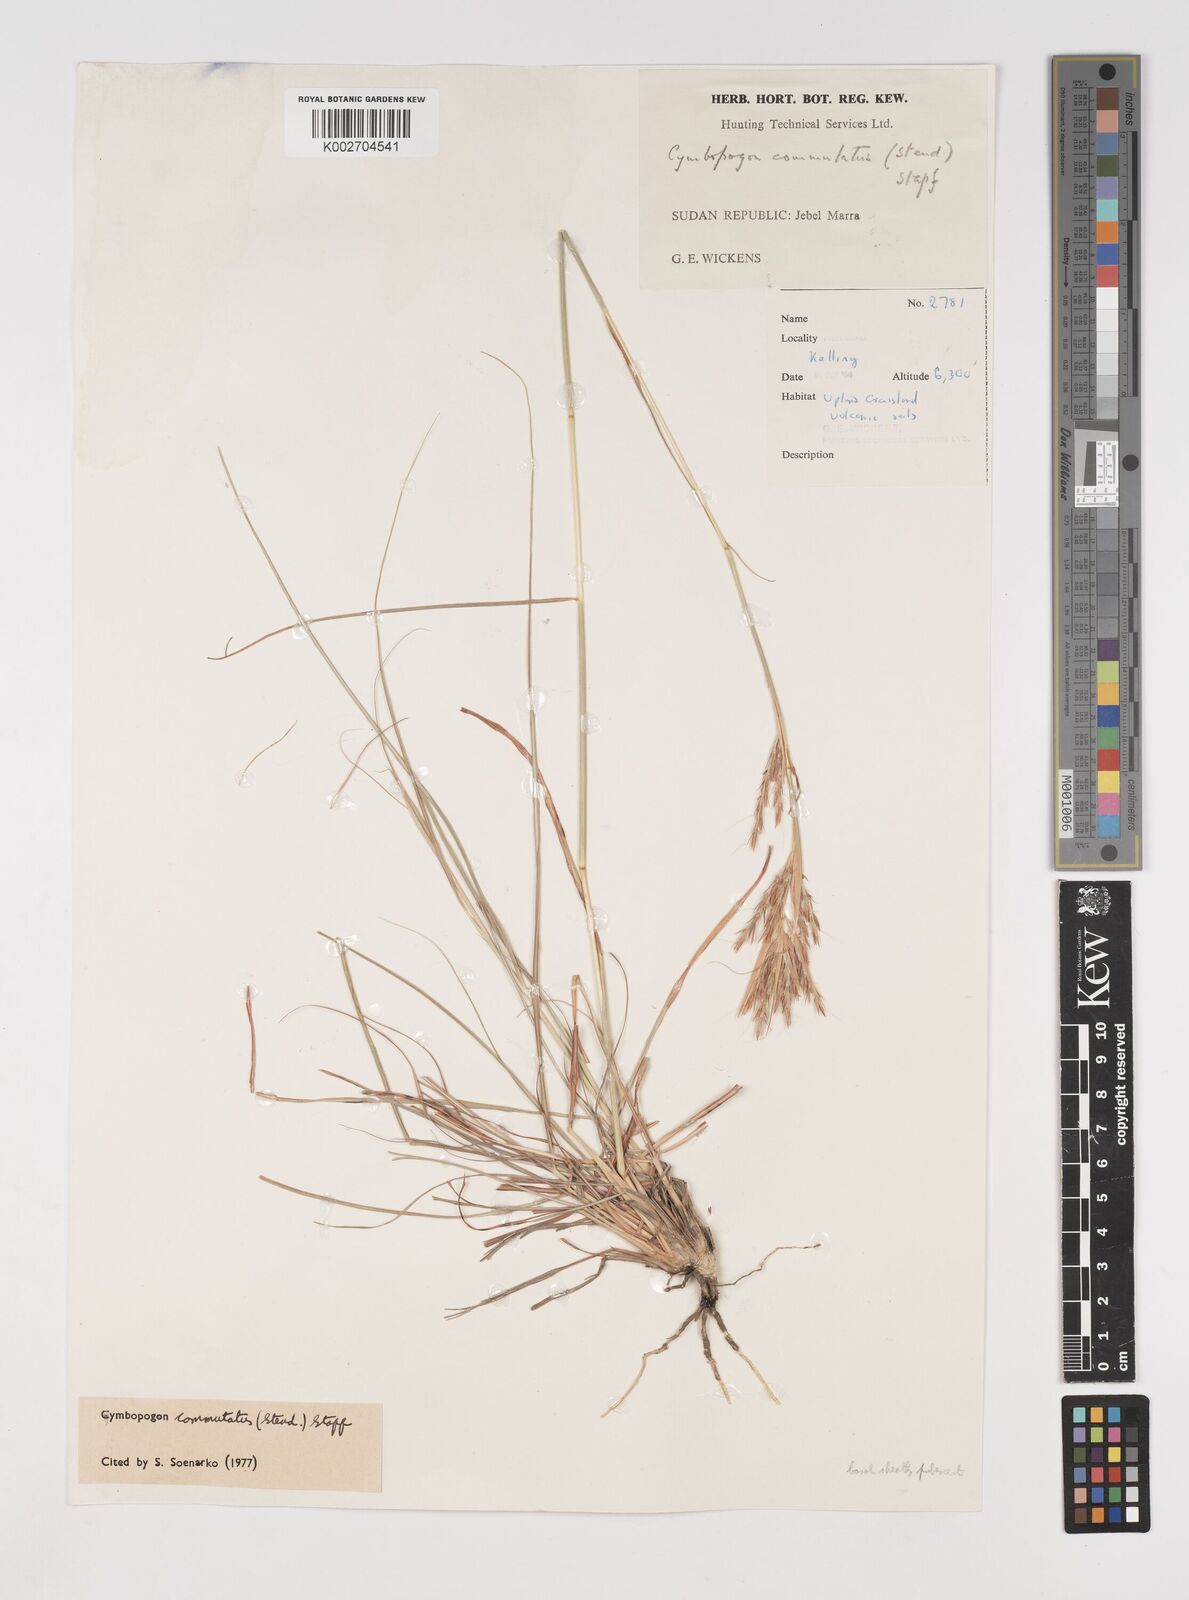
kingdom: Plantae
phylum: Tracheophyta
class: Liliopsida
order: Poales
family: Poaceae
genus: Cymbopogon
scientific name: Cymbopogon commutatus
